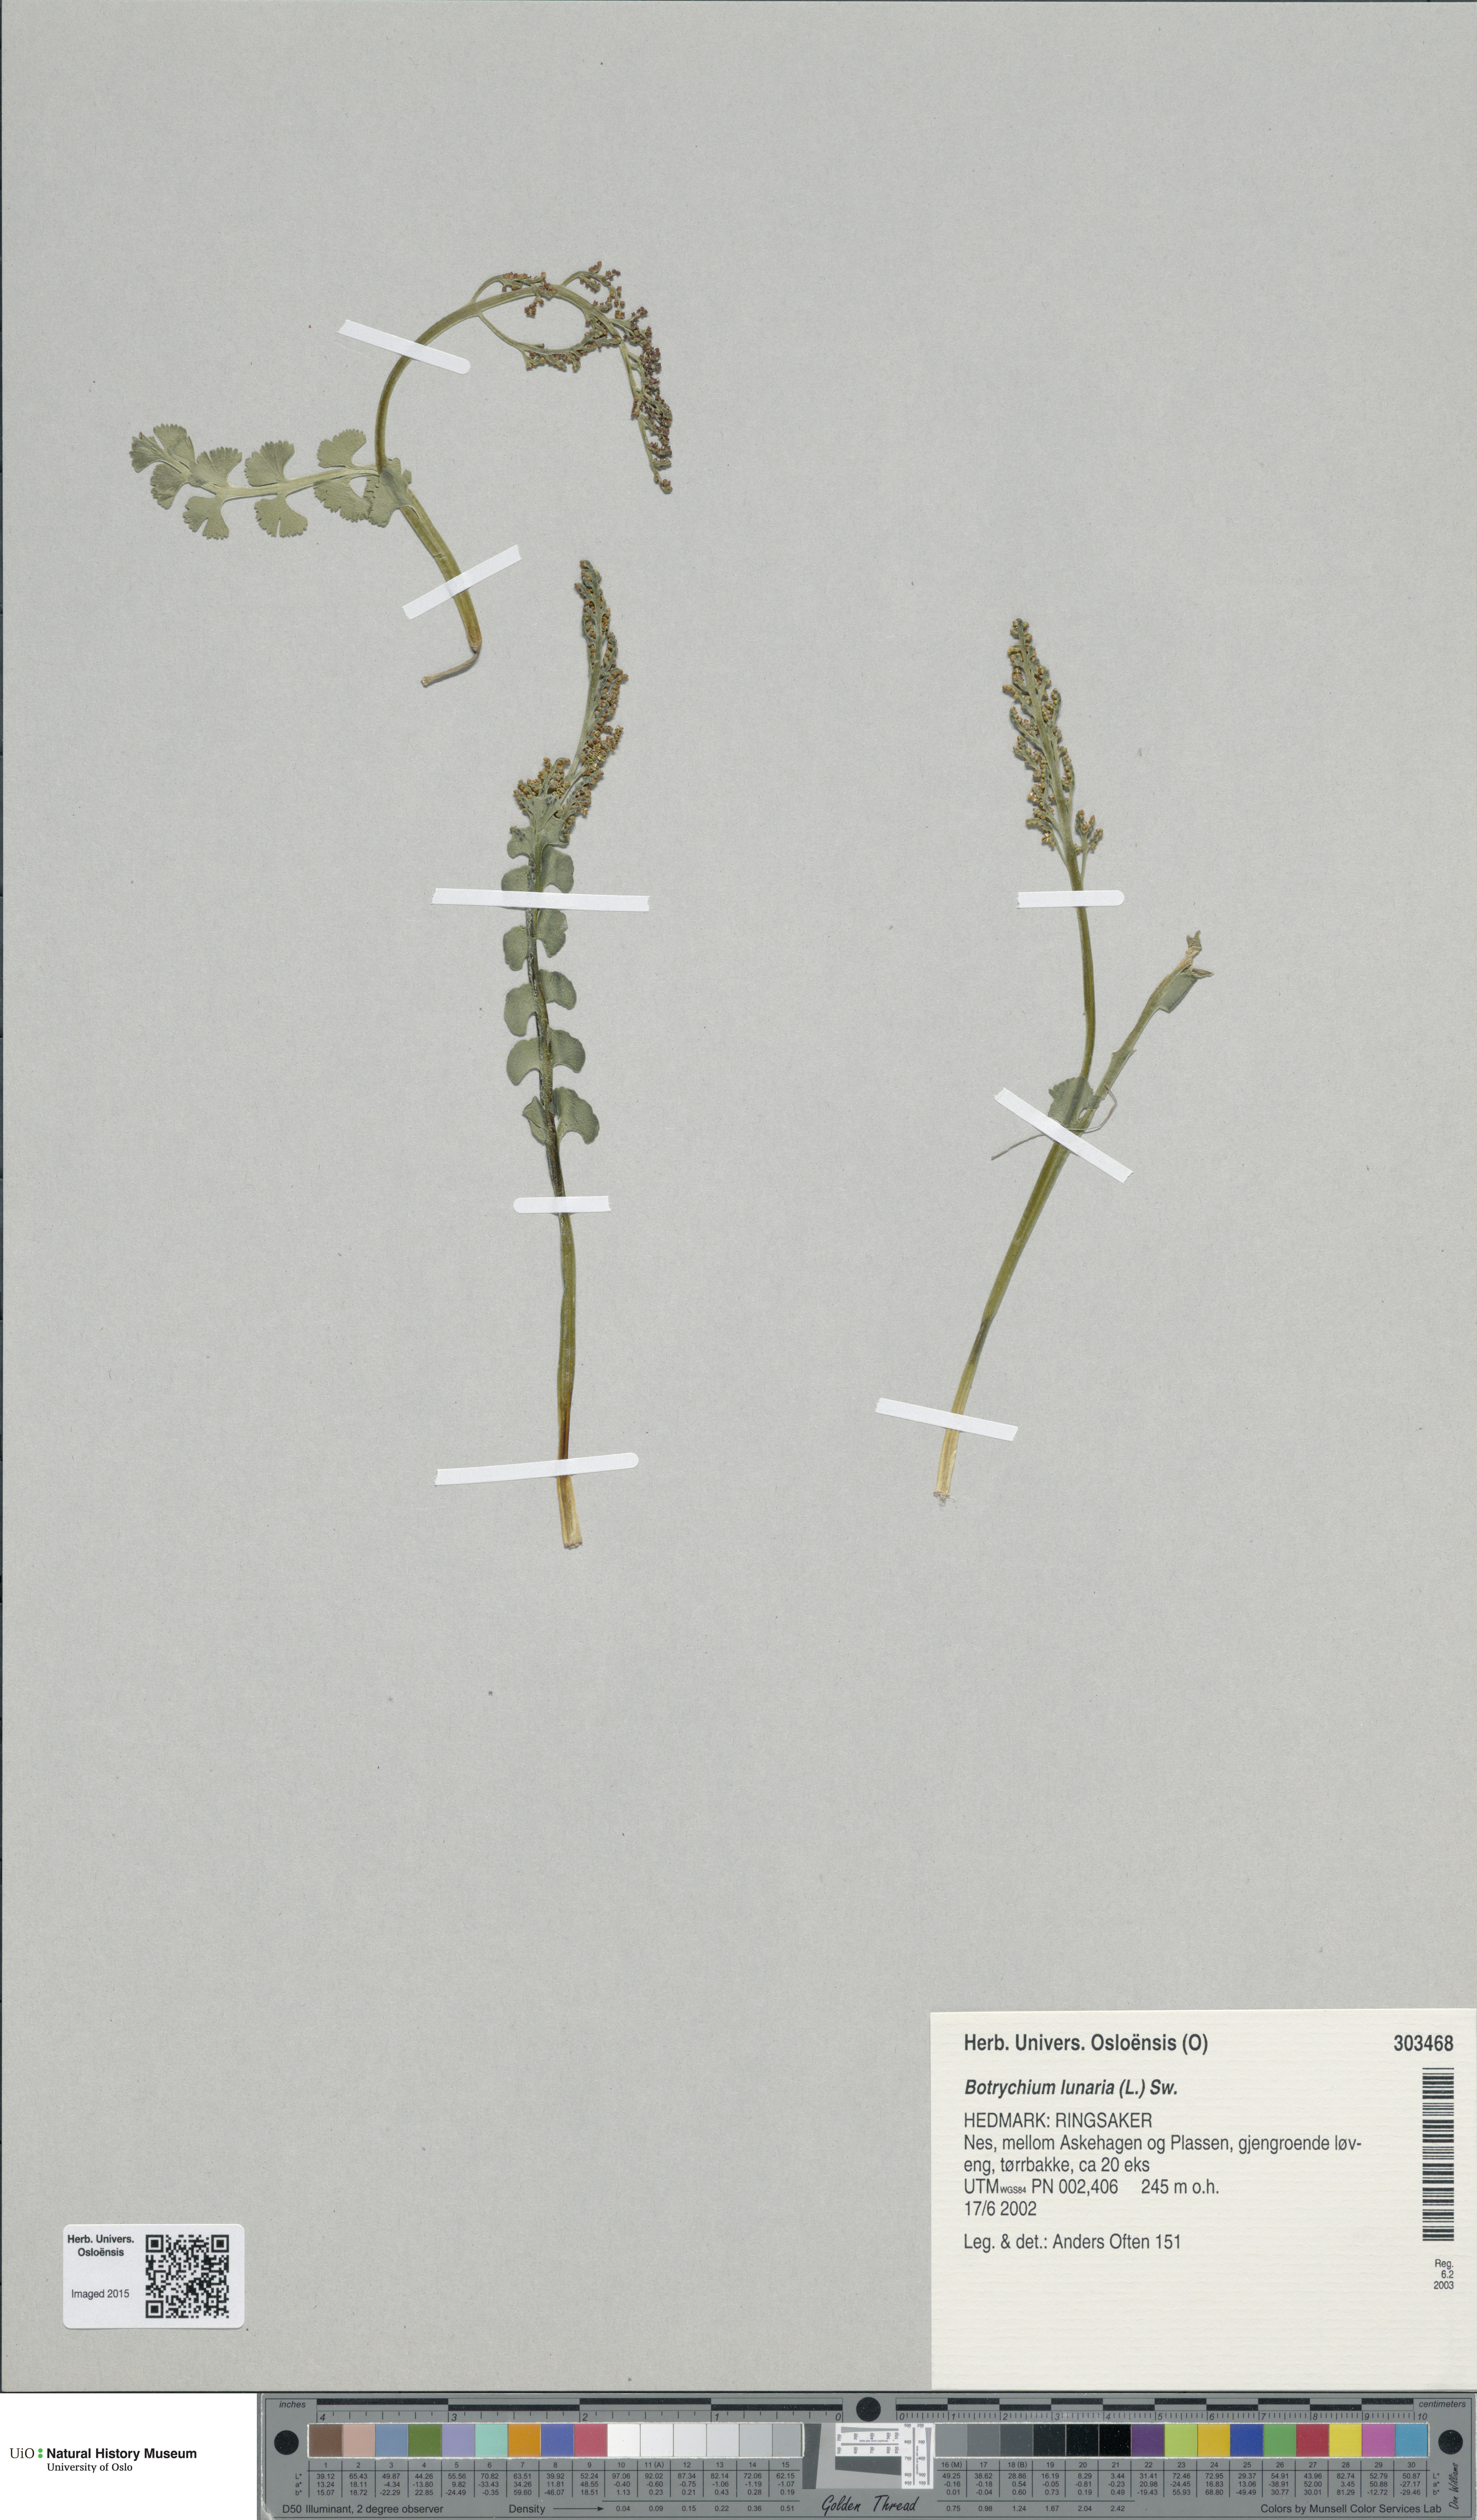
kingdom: Plantae
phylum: Tracheophyta
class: Polypodiopsida
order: Ophioglossales
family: Ophioglossaceae
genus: Botrychium
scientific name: Botrychium lunaria
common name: Moonwort
